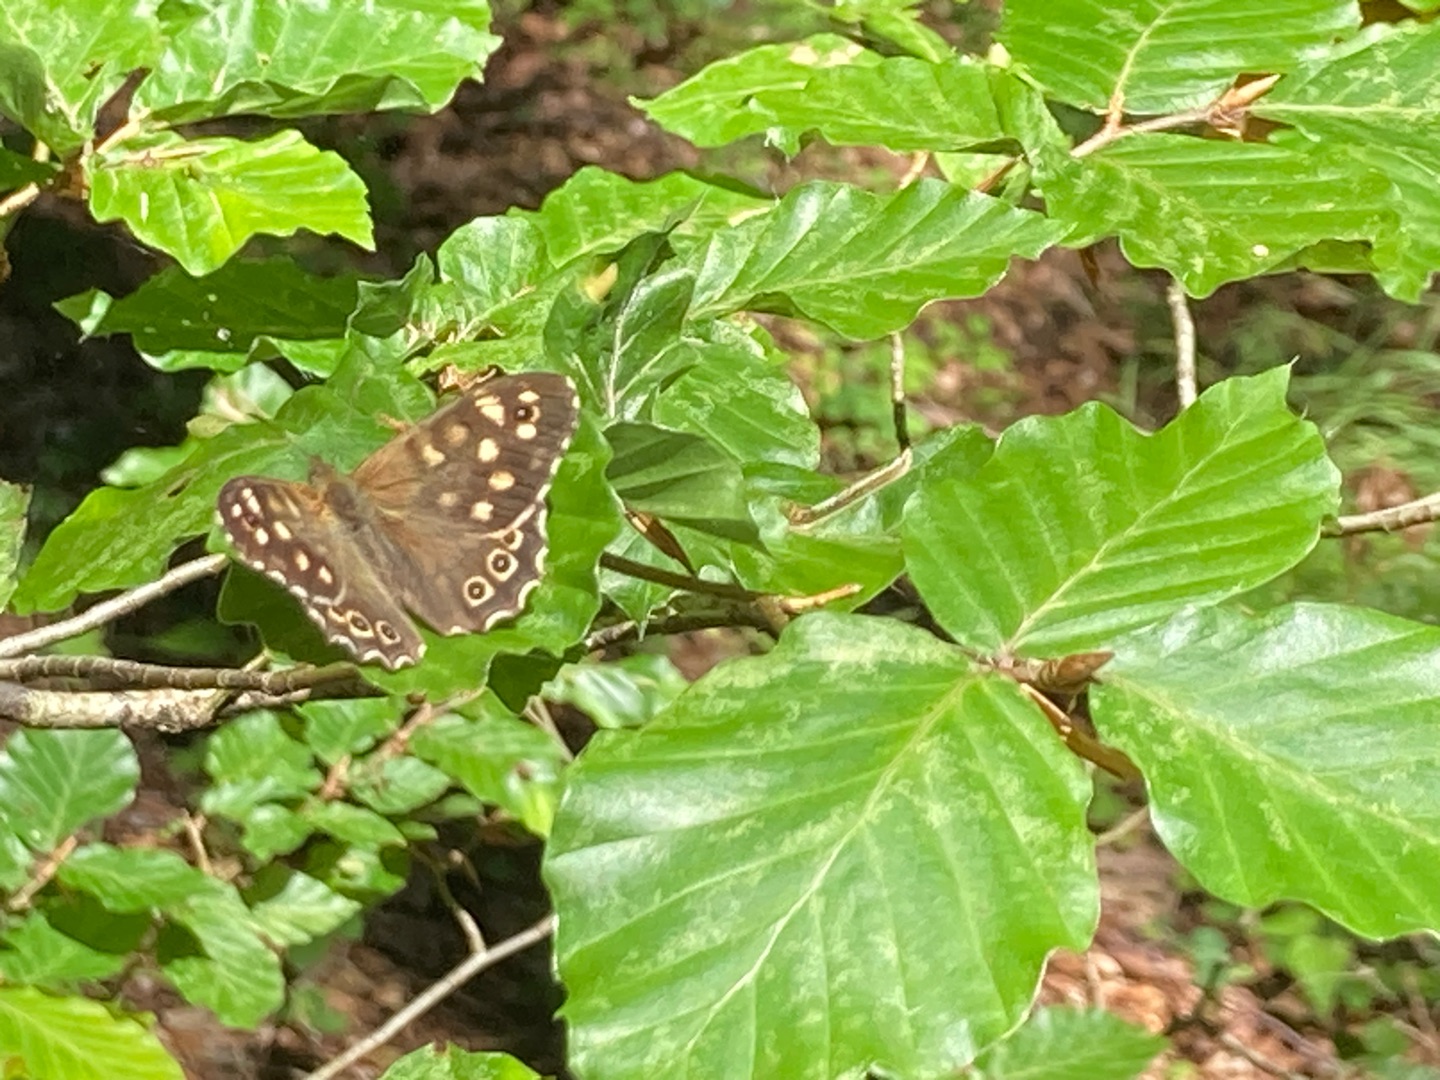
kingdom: Animalia
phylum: Arthropoda
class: Insecta
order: Lepidoptera
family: Nymphalidae
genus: Pararge
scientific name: Pararge aegeria
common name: Skovrandøje
